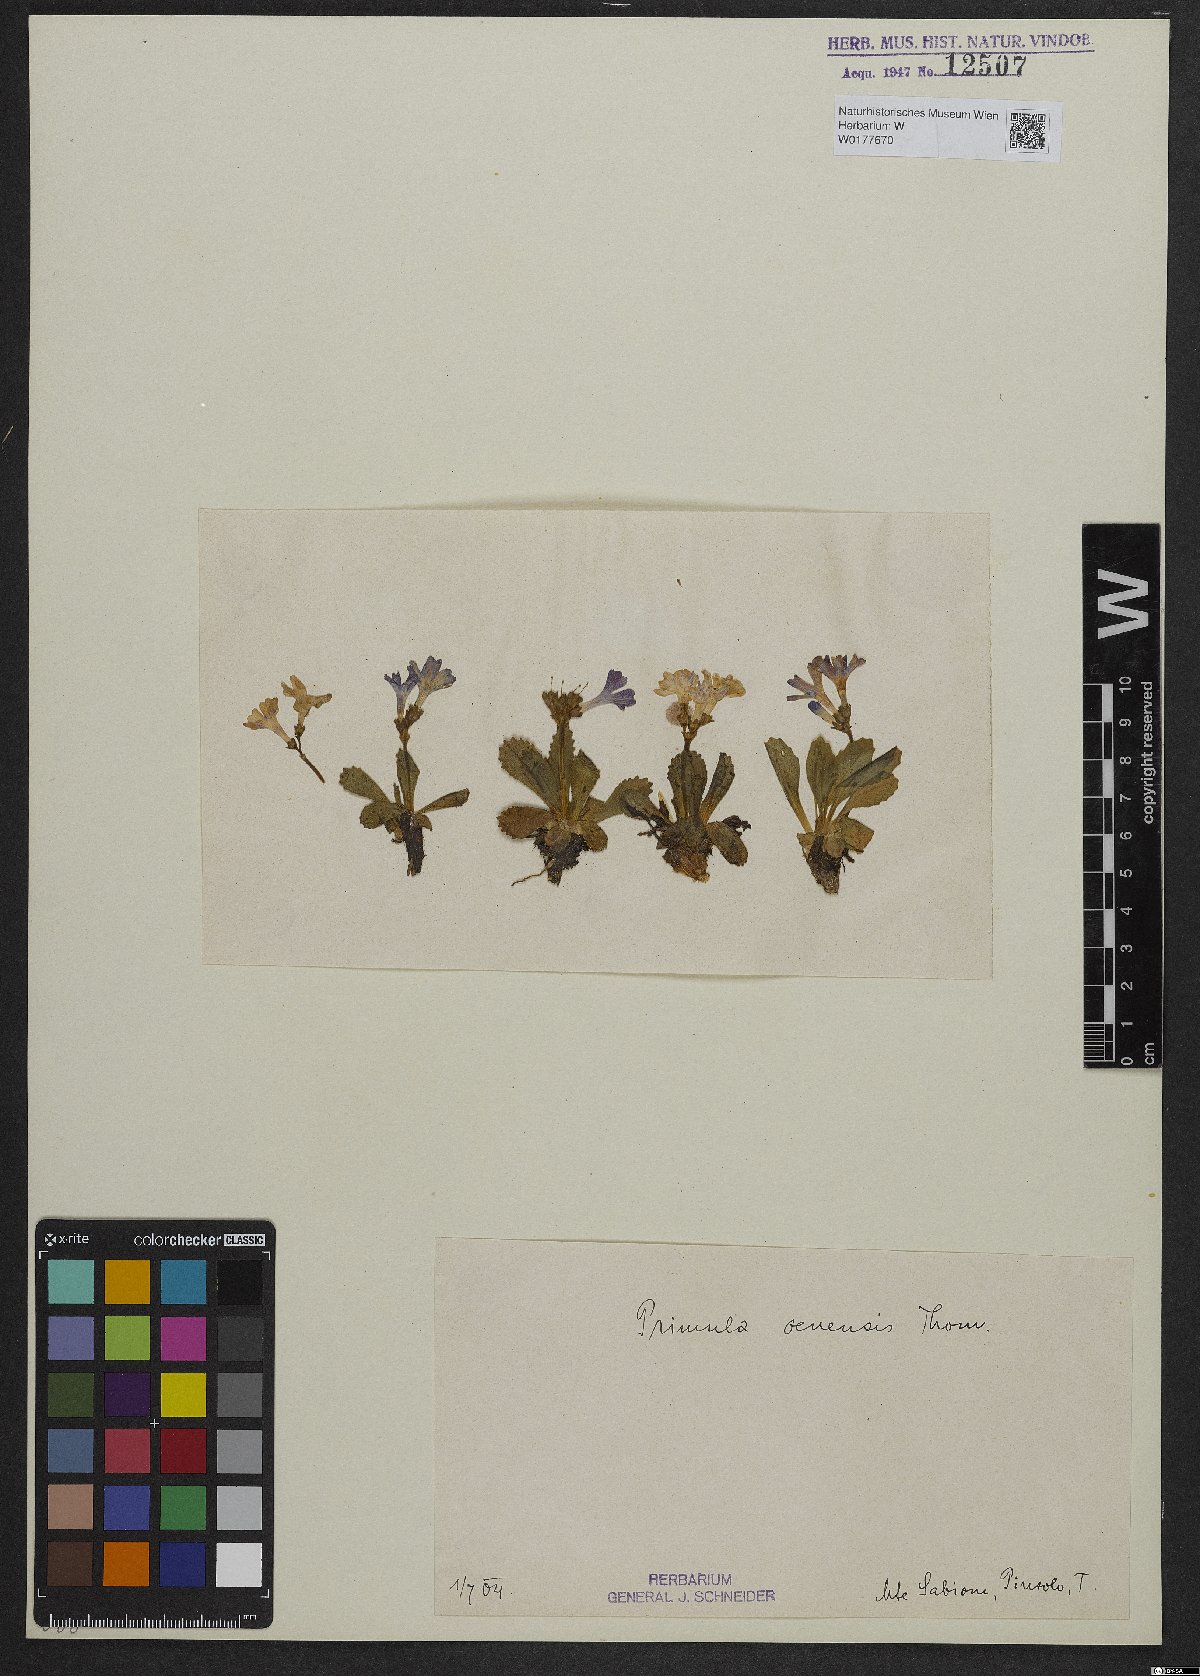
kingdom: Plantae
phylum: Tracheophyta
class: Magnoliopsida
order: Ericales
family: Primulaceae
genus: Primula
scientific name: Primula daonensis
